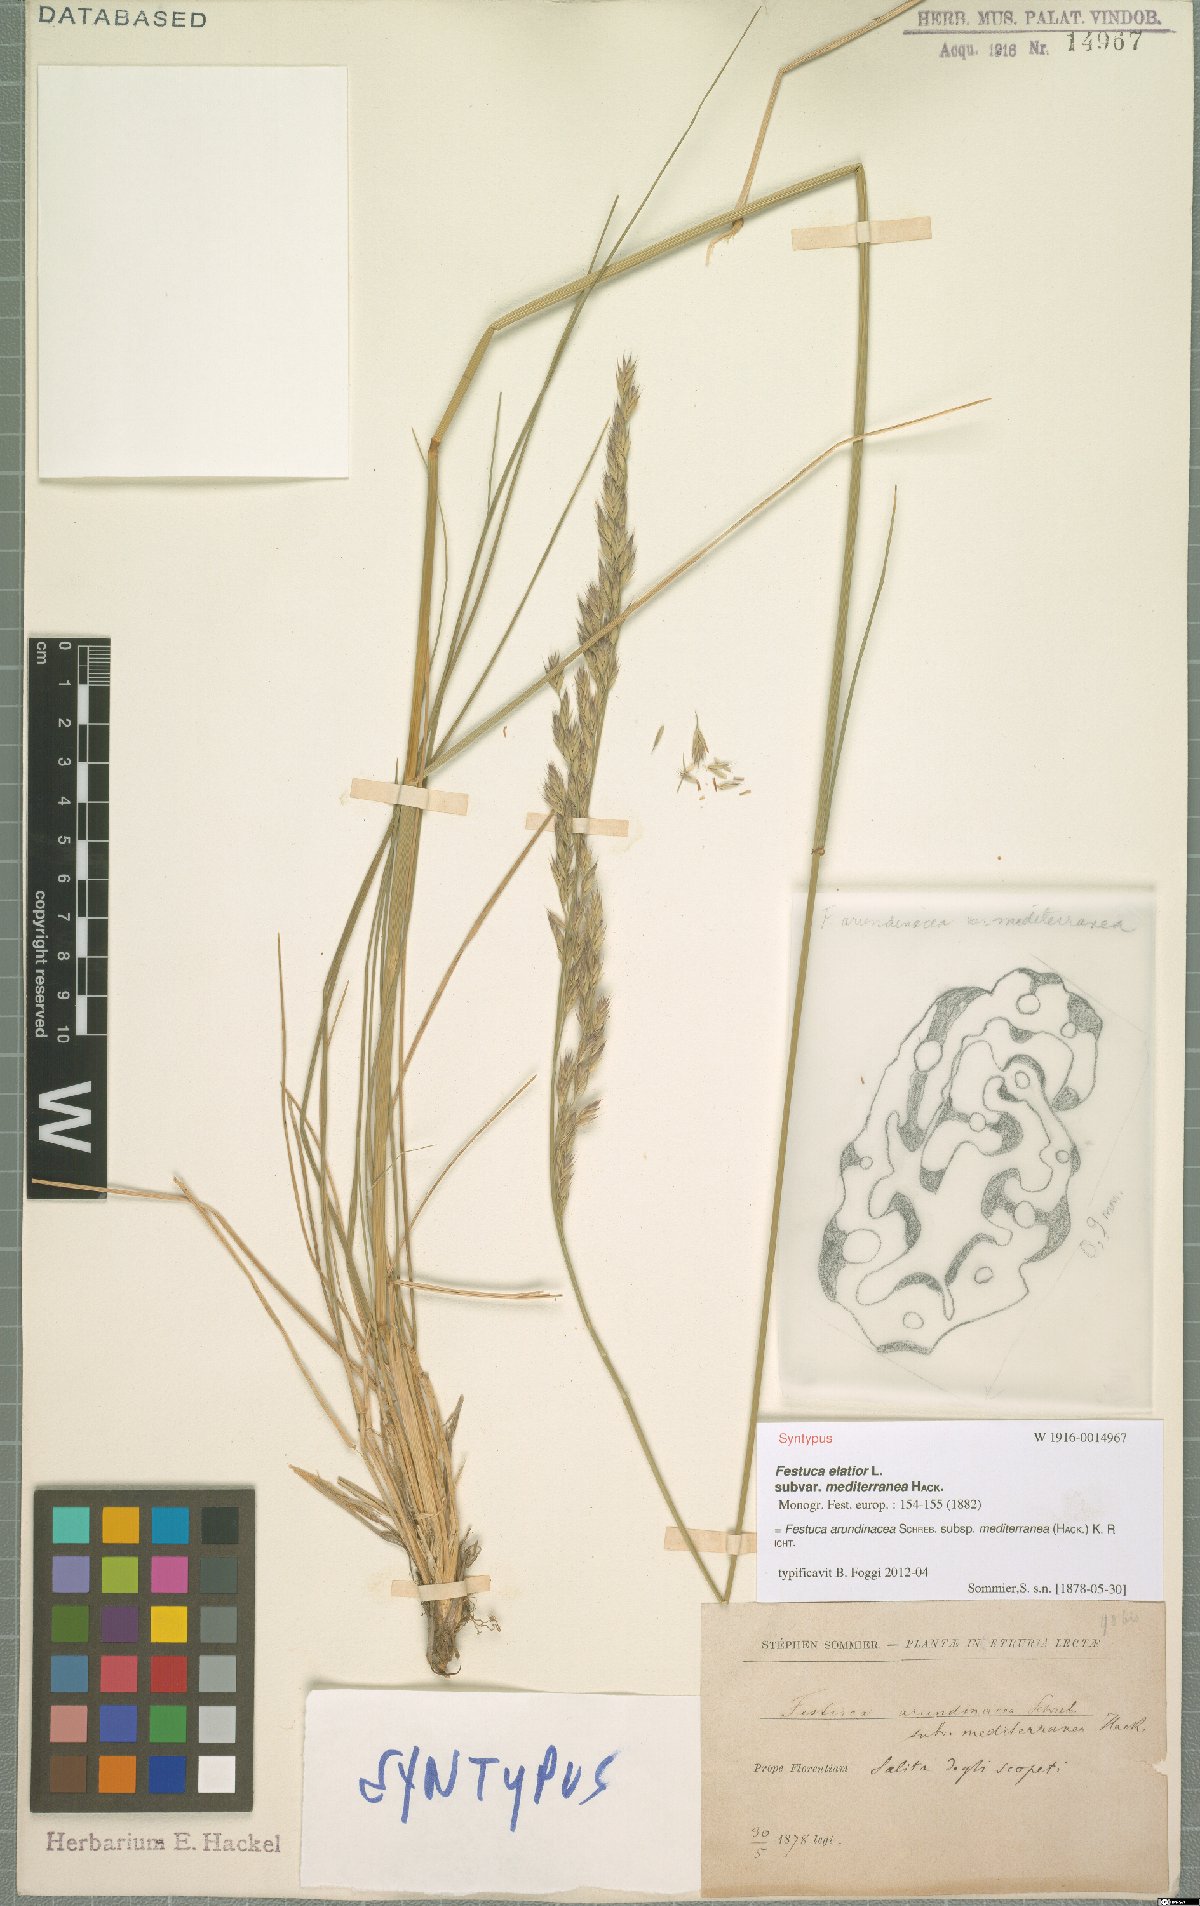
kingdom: Plantae
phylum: Tracheophyta
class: Liliopsida
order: Poales
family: Poaceae
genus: Lolium
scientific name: Lolium mediterraneum
